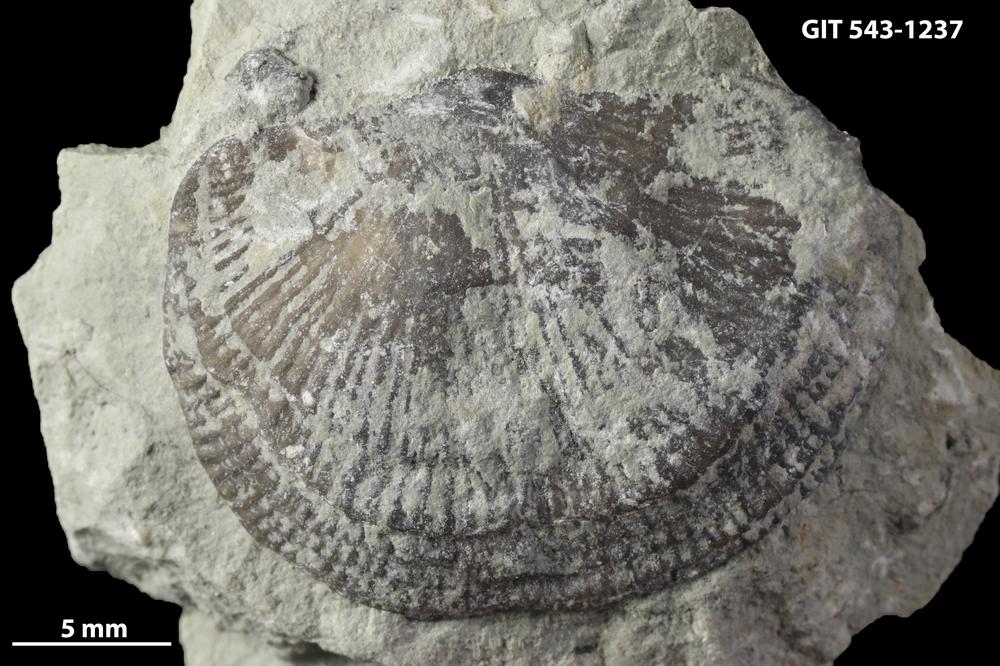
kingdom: Animalia
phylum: Brachiopoda
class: Rhynchonellata
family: Clitambonitidae
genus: Vellamo
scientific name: Vellamo
